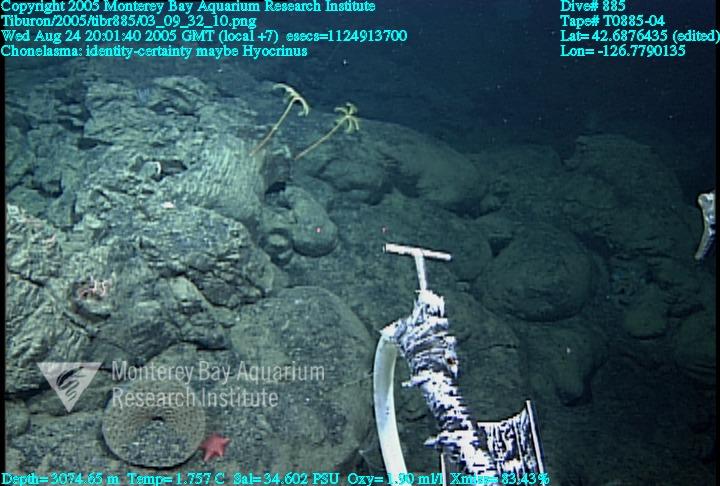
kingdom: Animalia
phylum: Porifera
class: Hexactinellida
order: Sceptrulophora
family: Euretidae
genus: Chonelasma
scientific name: Chonelasma
